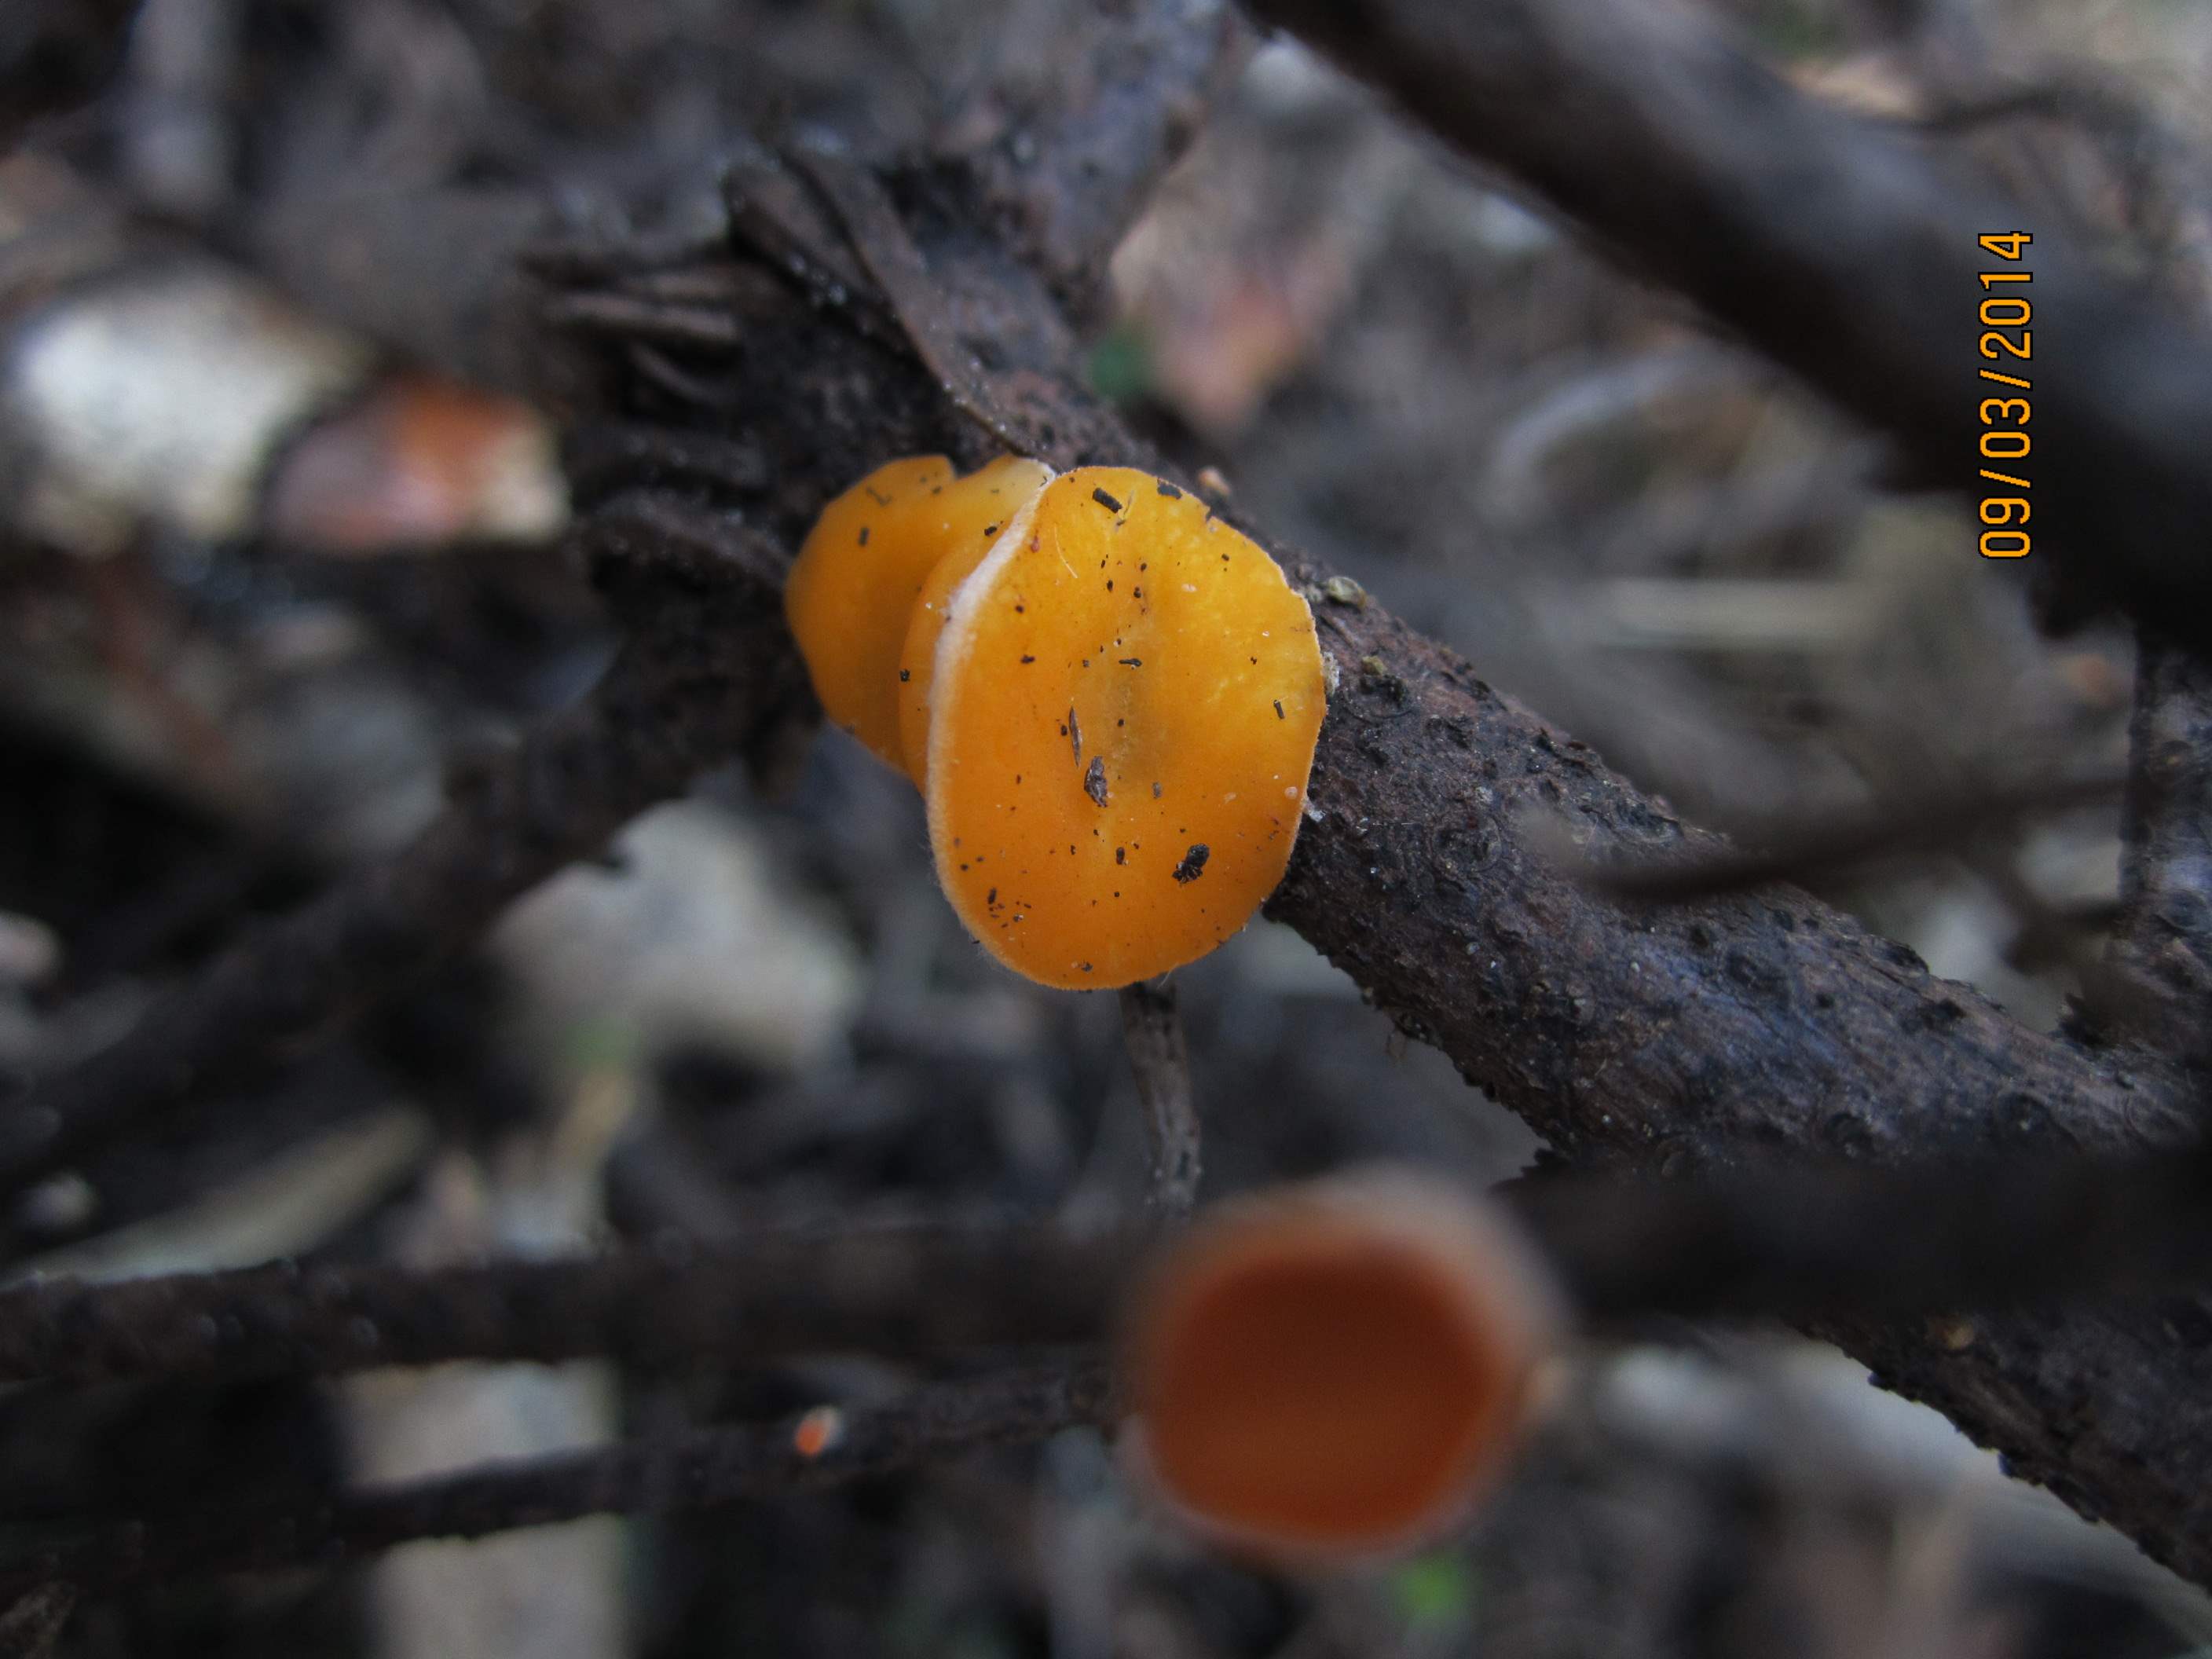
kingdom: Fungi
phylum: Ascomycota
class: Pezizomycetes
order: Pezizales
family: Sarcoscyphaceae
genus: Pithya
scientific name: Pithya vulgaris
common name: stor dukatbæger
